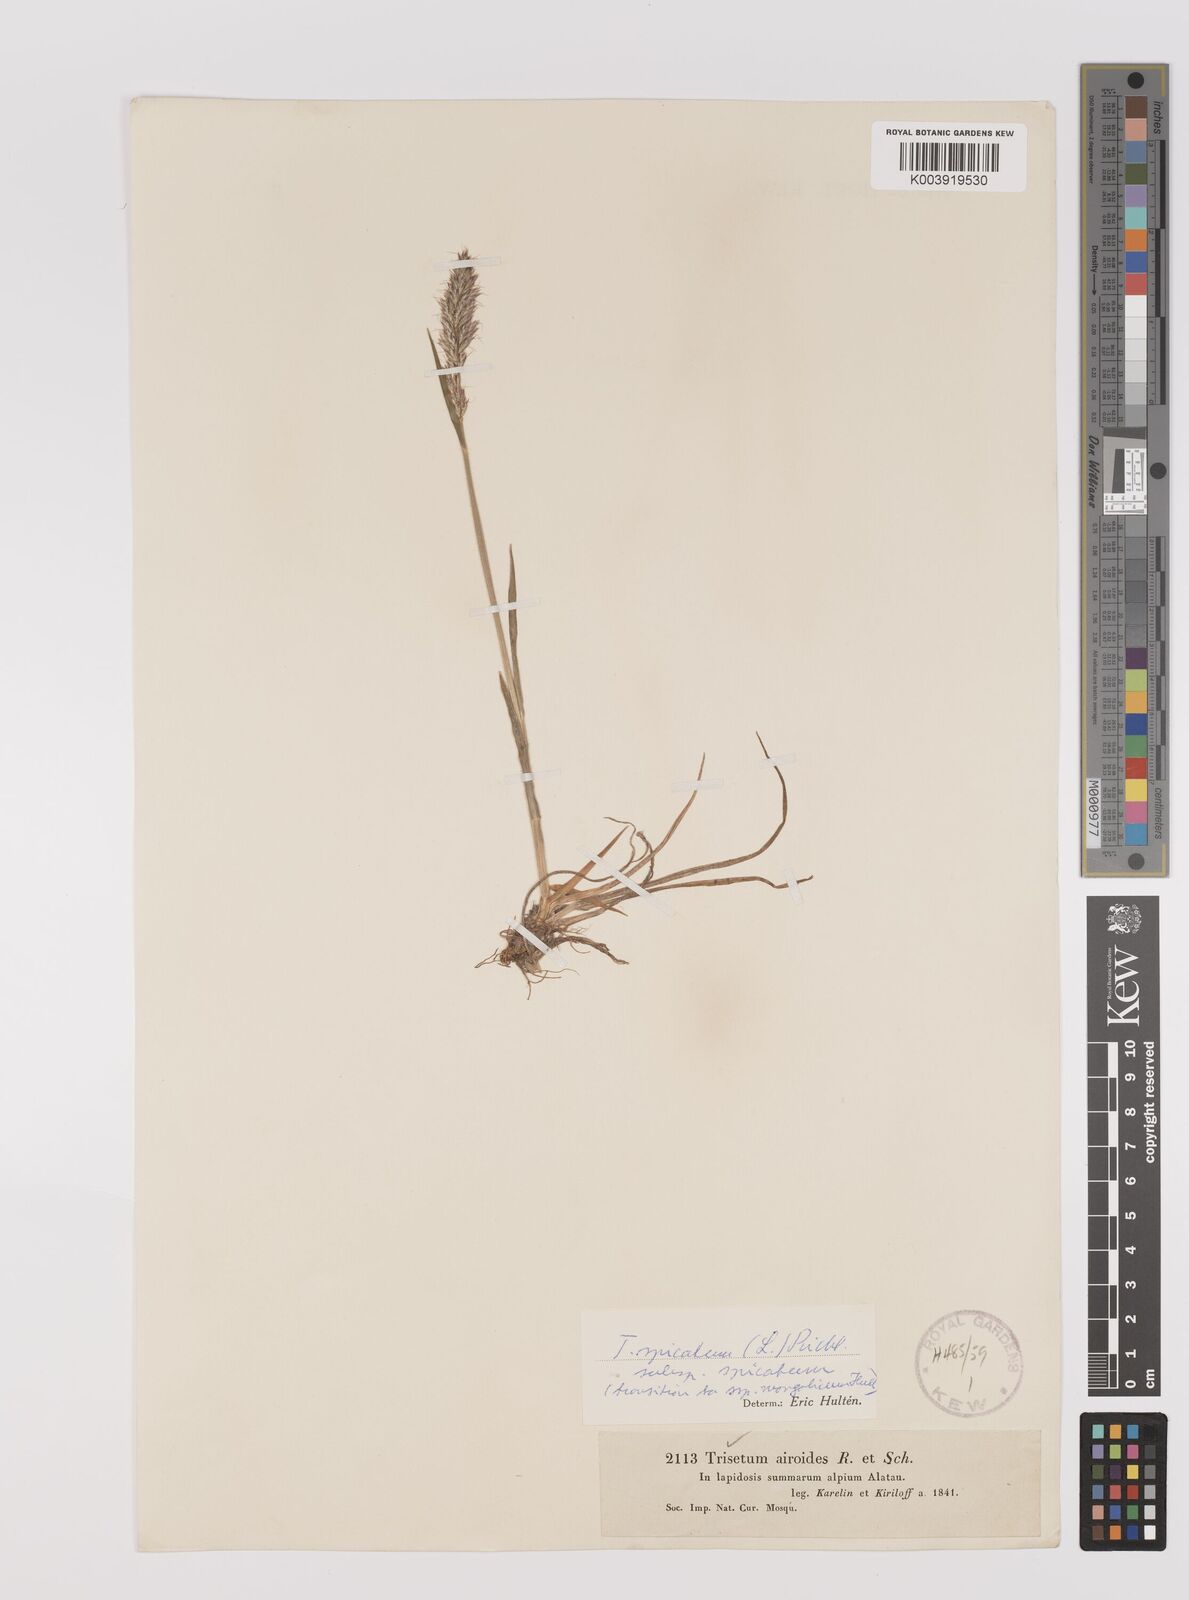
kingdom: Plantae
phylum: Tracheophyta
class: Liliopsida
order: Poales
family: Poaceae
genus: Koeleria
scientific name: Koeleria spicata
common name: Mountain trisetum
